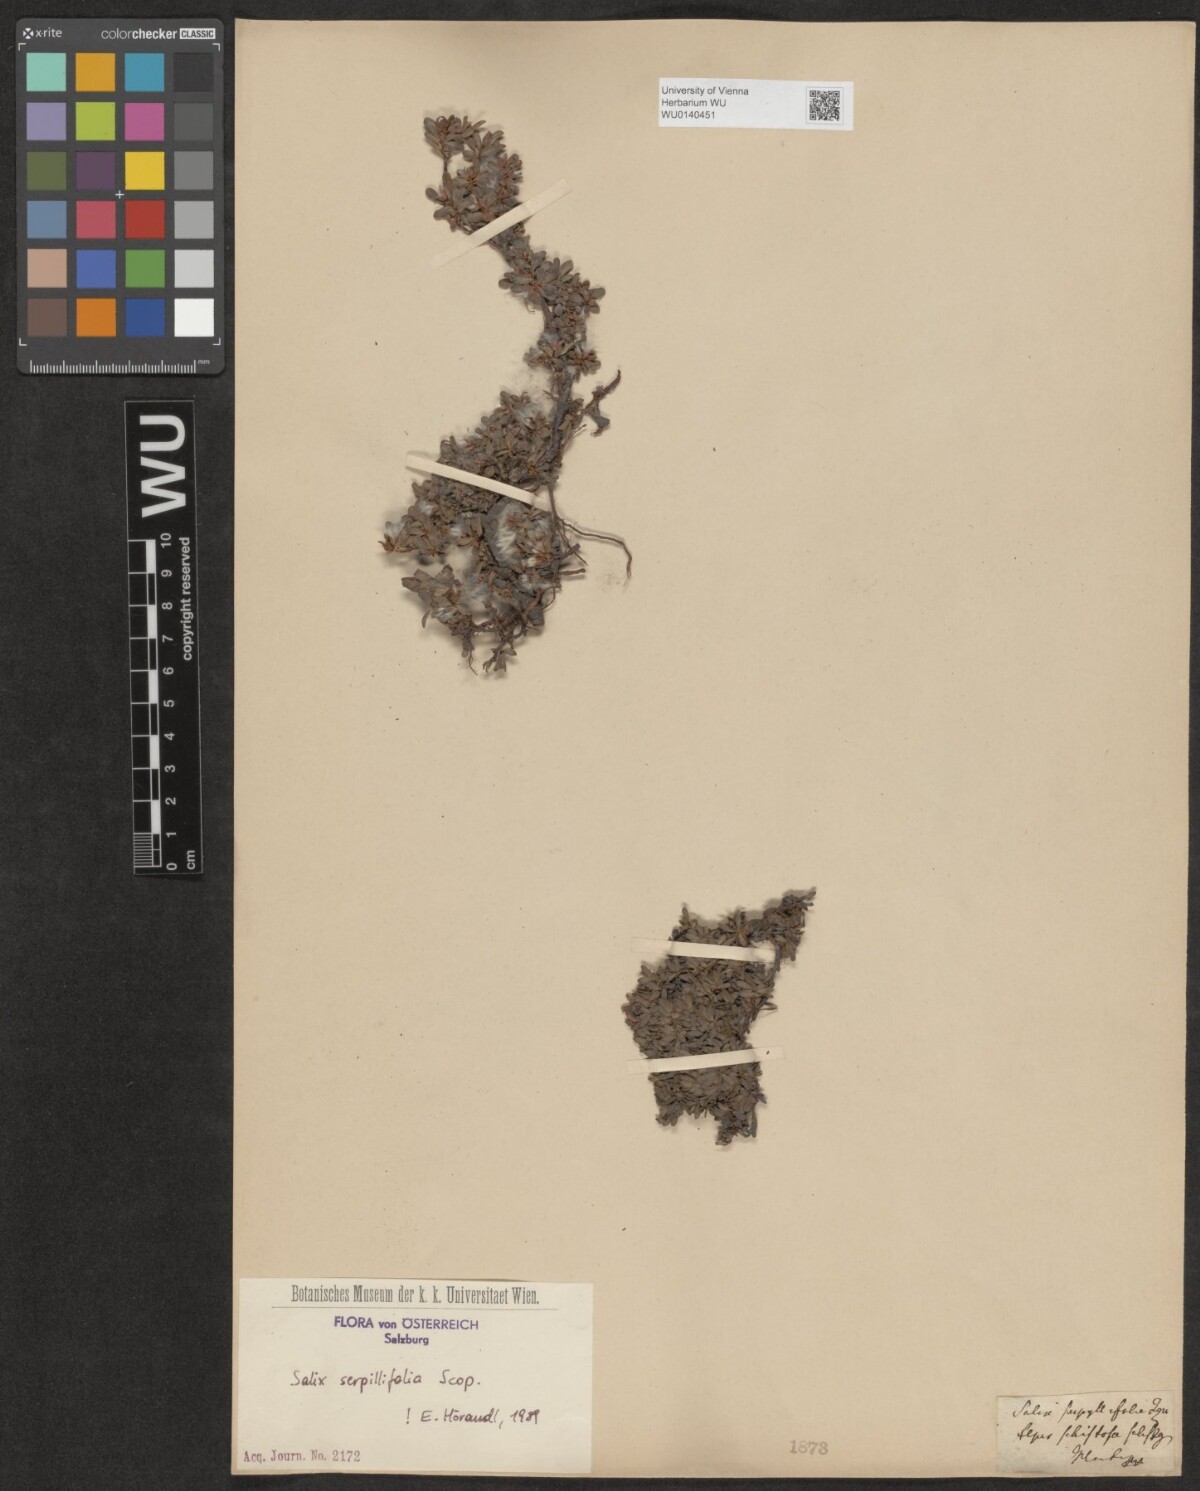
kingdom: Plantae
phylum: Tracheophyta
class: Magnoliopsida
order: Malpighiales
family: Salicaceae
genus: Salix
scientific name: Salix serpillifolia
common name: Thyme-leaf willow
